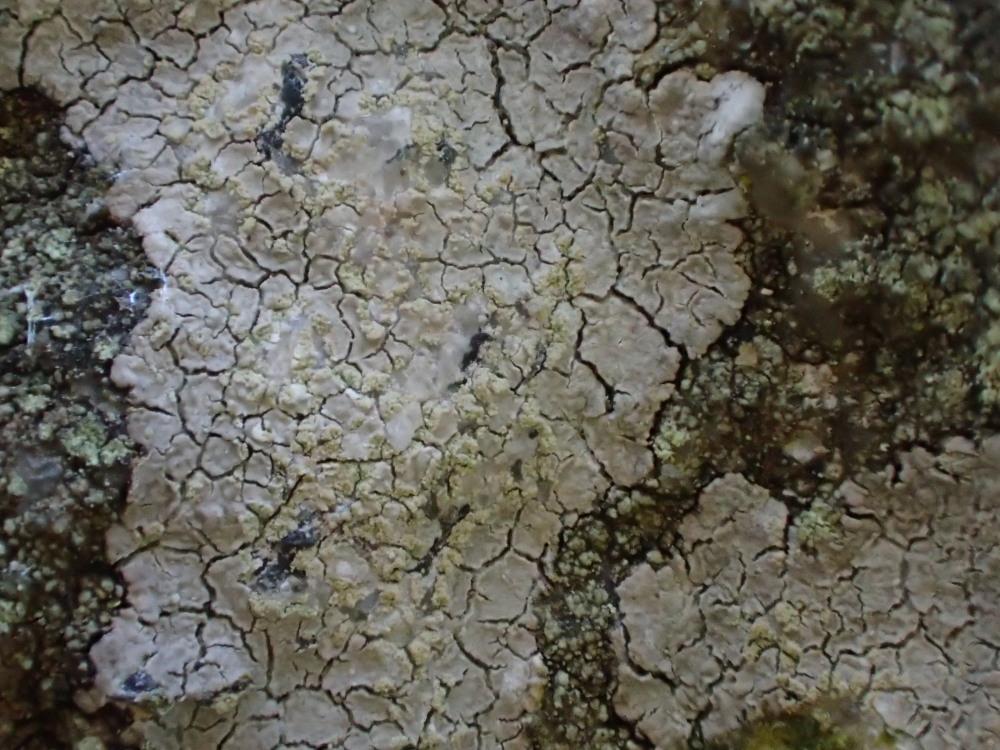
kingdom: Fungi
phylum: Ascomycota
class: Lecanoromycetes
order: Baeomycetales
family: Trapeliaceae
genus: Kleopowiella
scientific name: Kleopowiella placodioides
